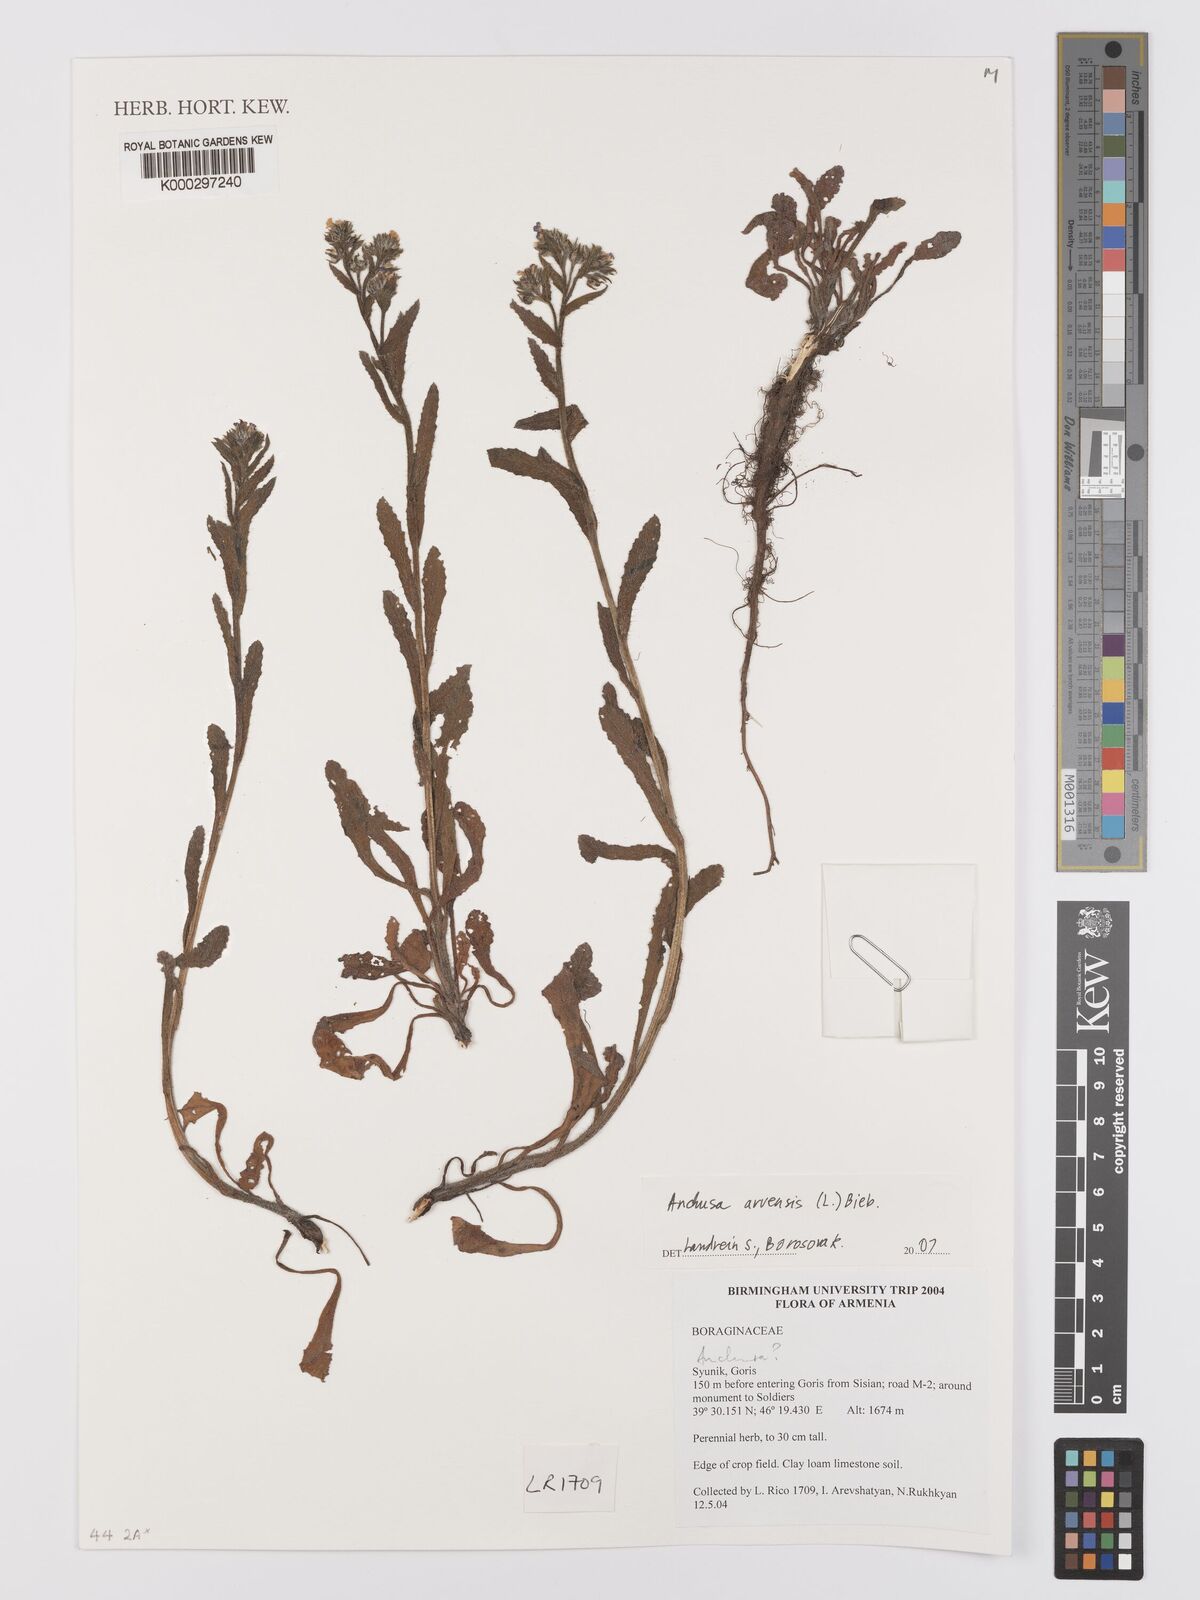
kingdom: Plantae
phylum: Tracheophyta
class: Magnoliopsida
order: Boraginales
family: Boraginaceae
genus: Lycopsis
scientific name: Lycopsis arvensis
